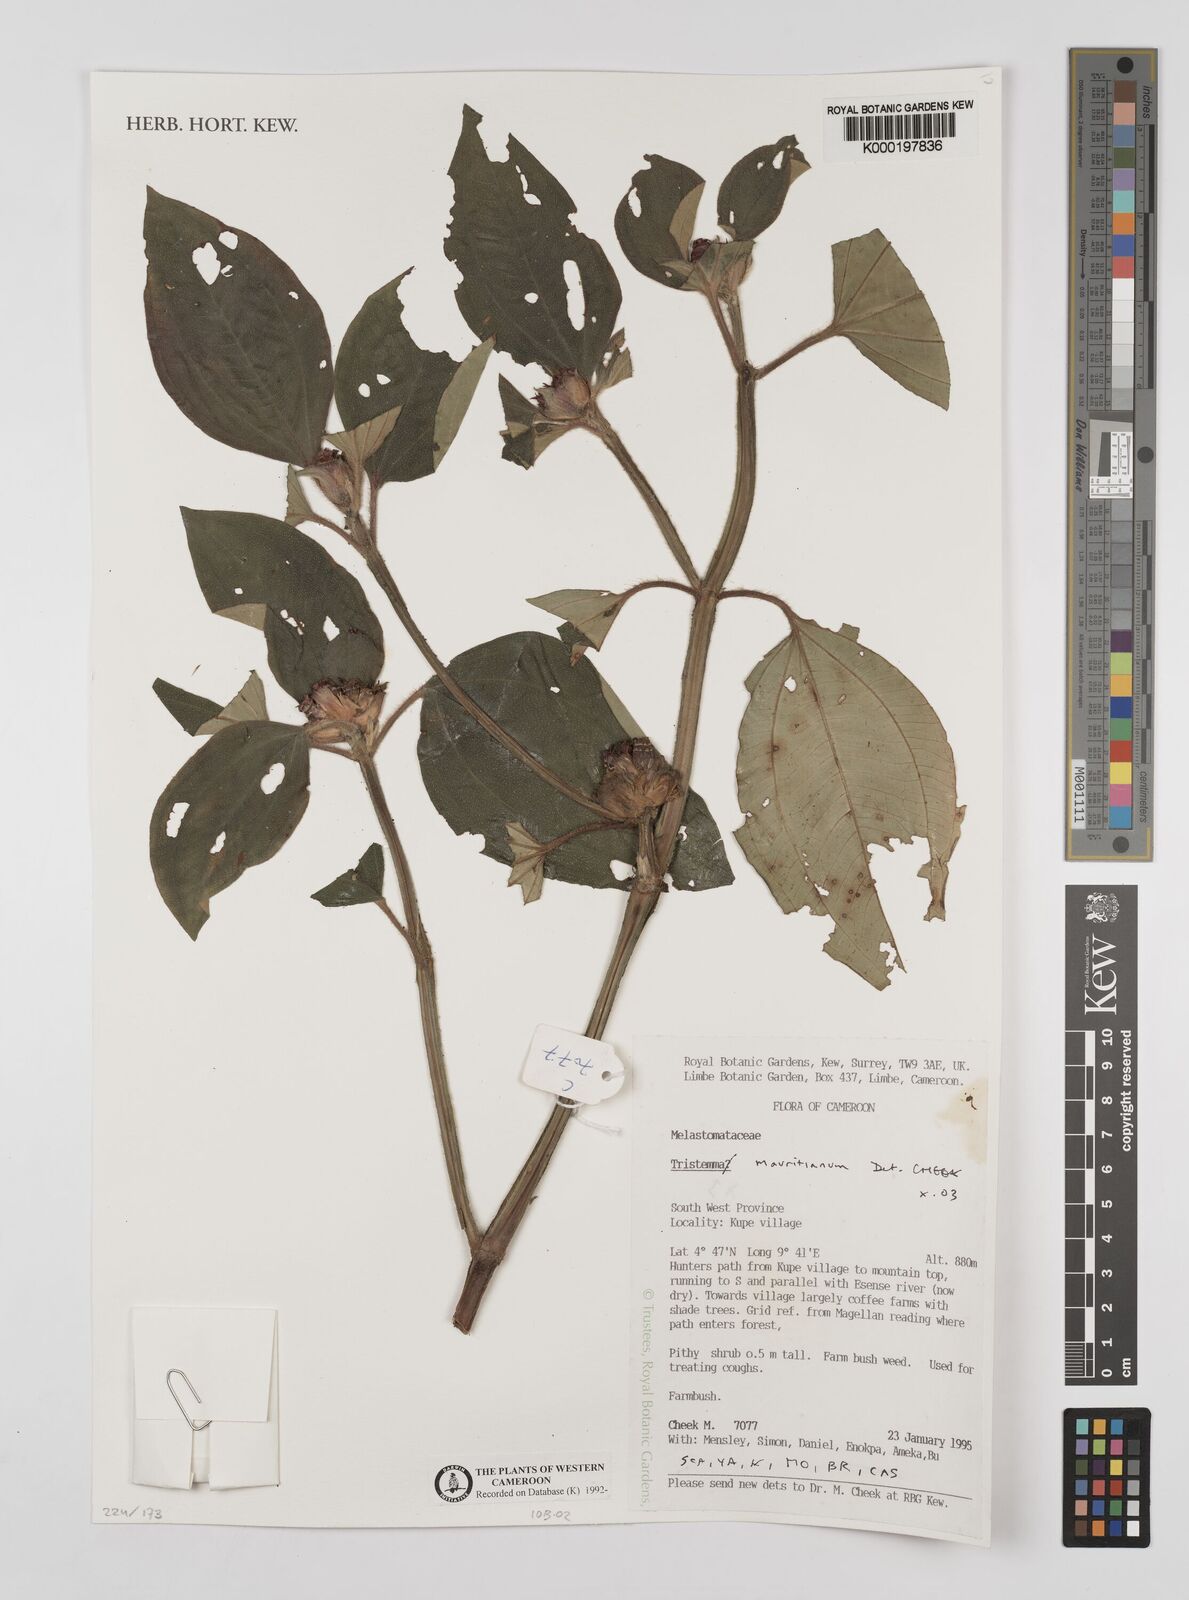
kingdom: Plantae
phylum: Tracheophyta
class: Magnoliopsida
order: Myrtales
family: Melastomataceae
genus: Tristemma
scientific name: Tristemma
